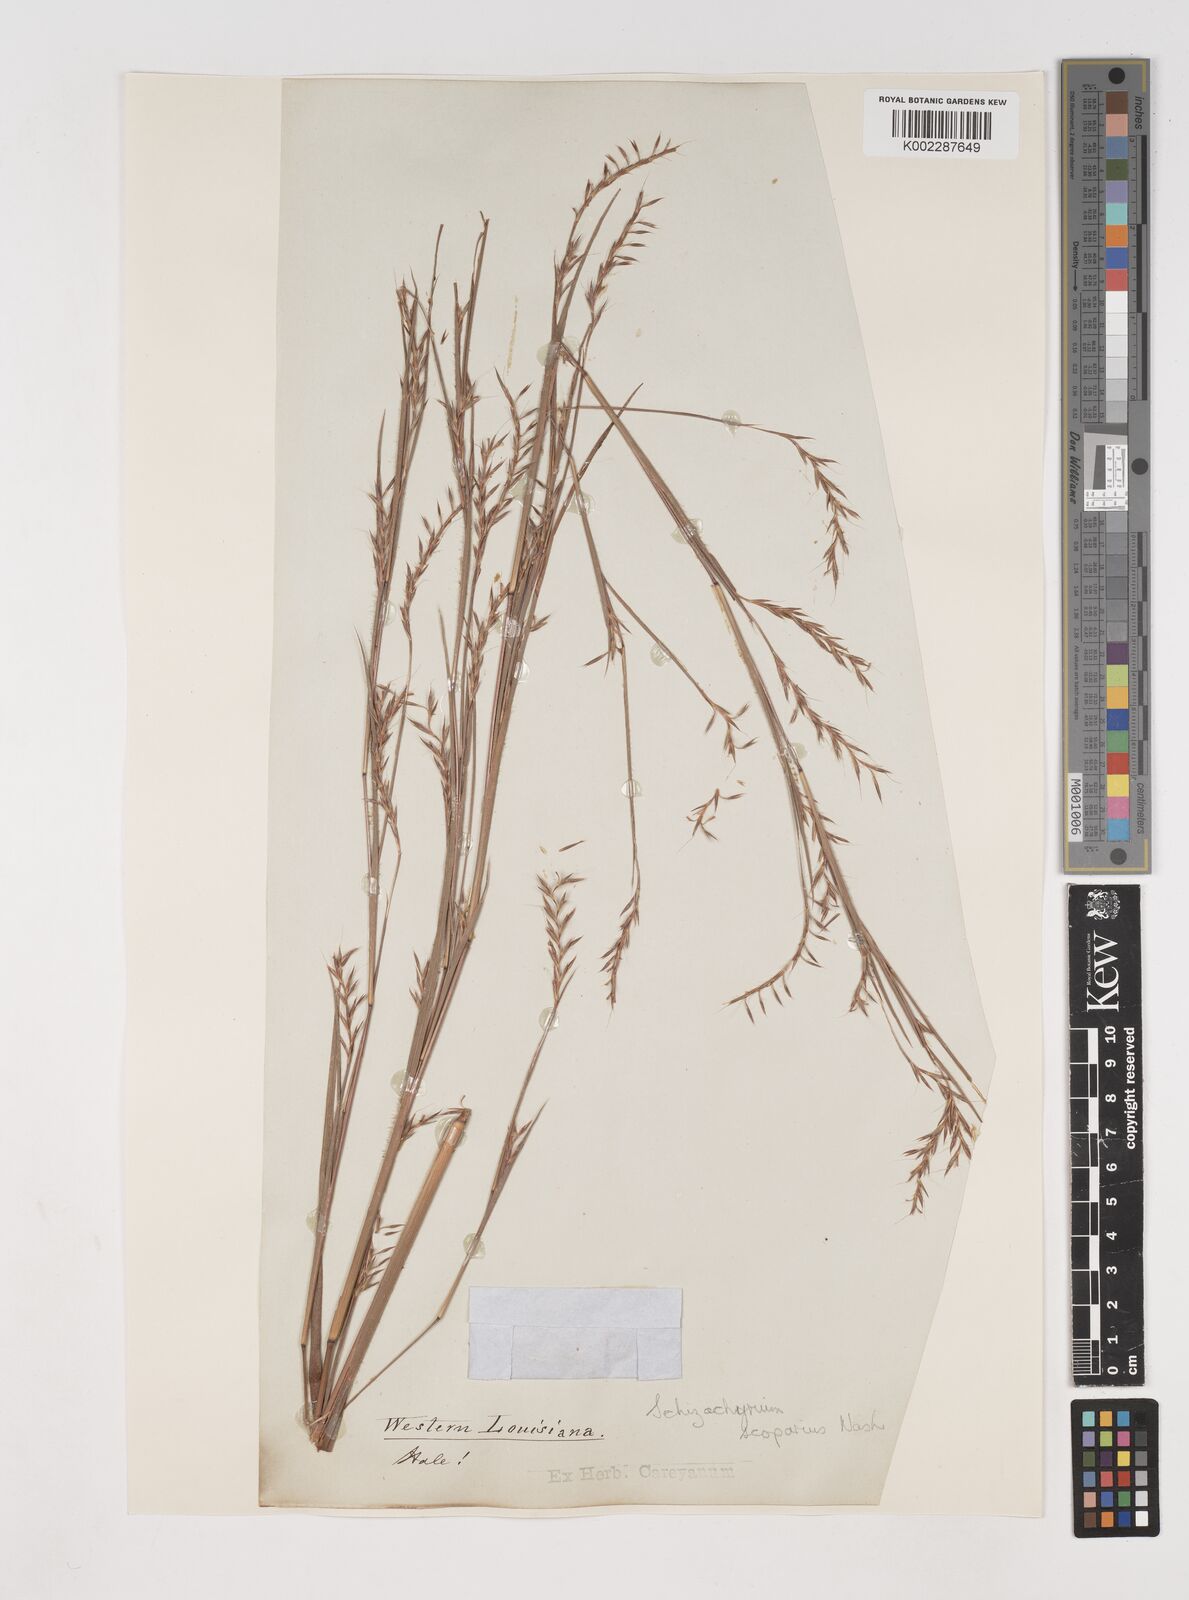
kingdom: Plantae
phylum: Tracheophyta
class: Liliopsida
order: Poales
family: Poaceae
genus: Schizachyrium
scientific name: Schizachyrium scoparium
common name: Little bluestem
